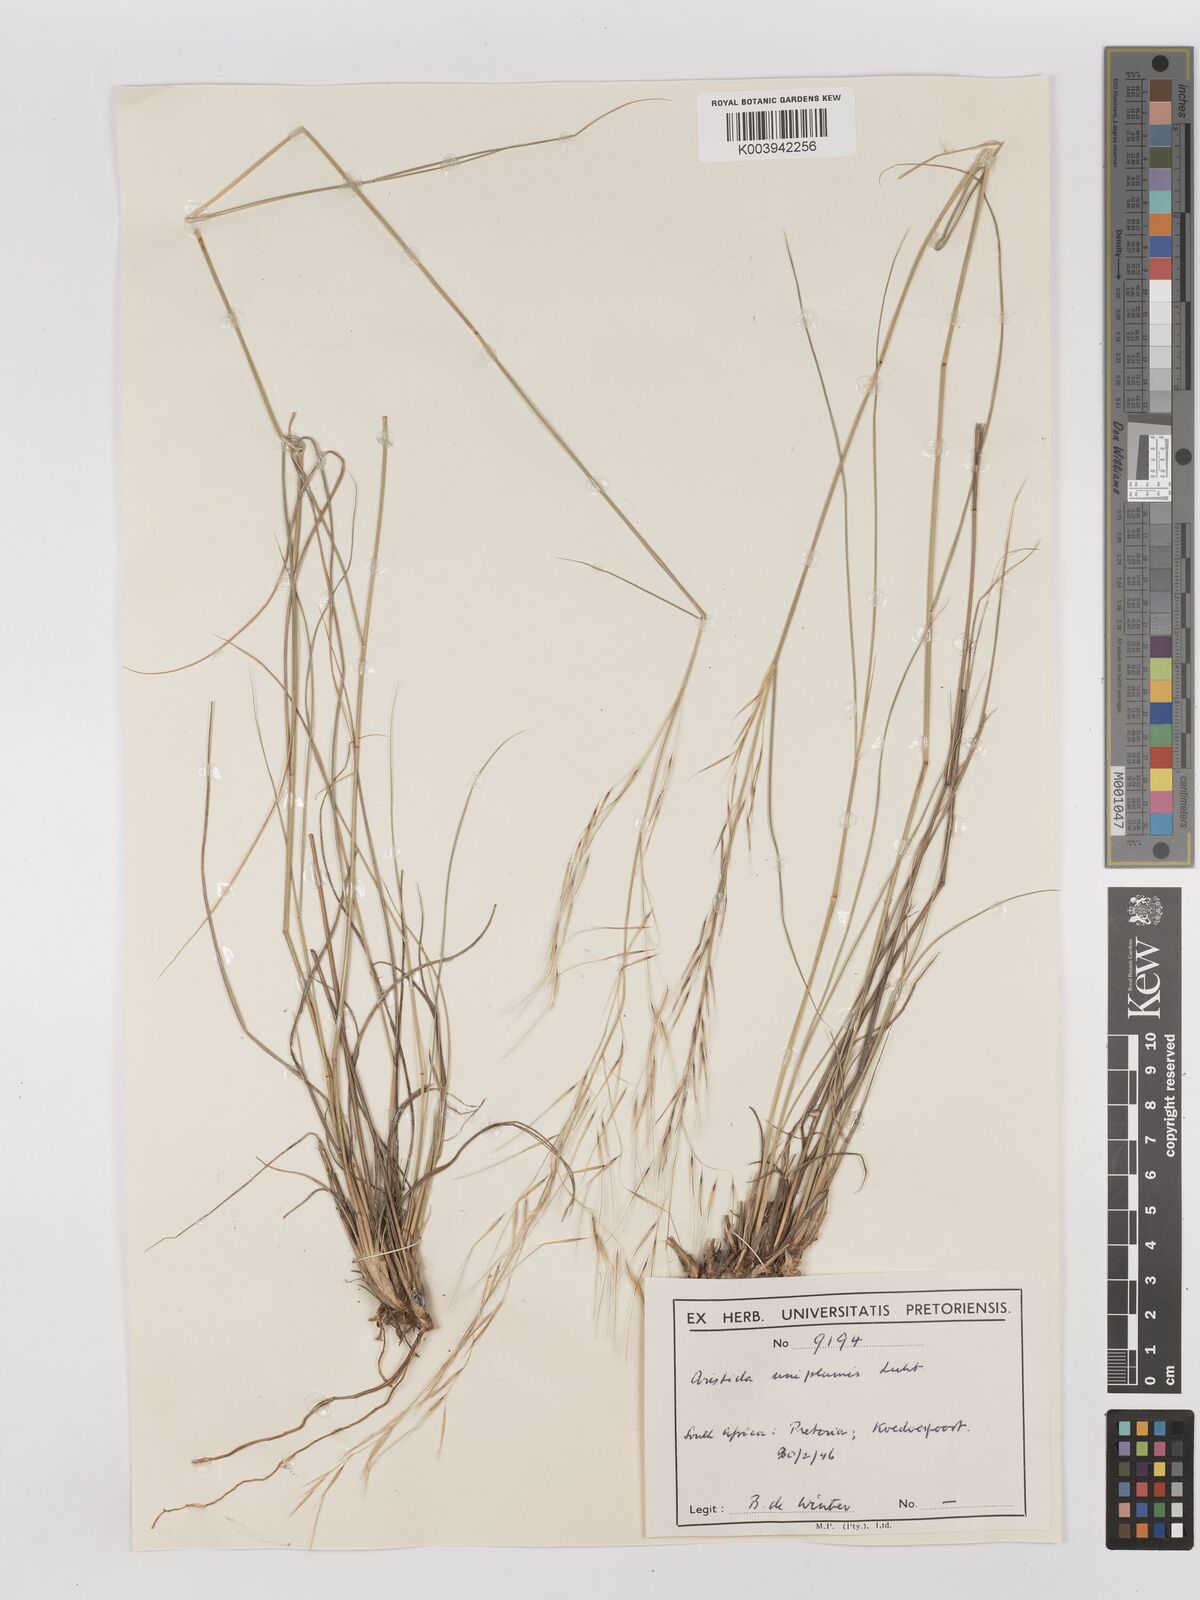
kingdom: Plantae
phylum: Tracheophyta
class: Liliopsida
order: Poales
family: Poaceae
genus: Stipagrostis
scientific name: Stipagrostis uniplumis
